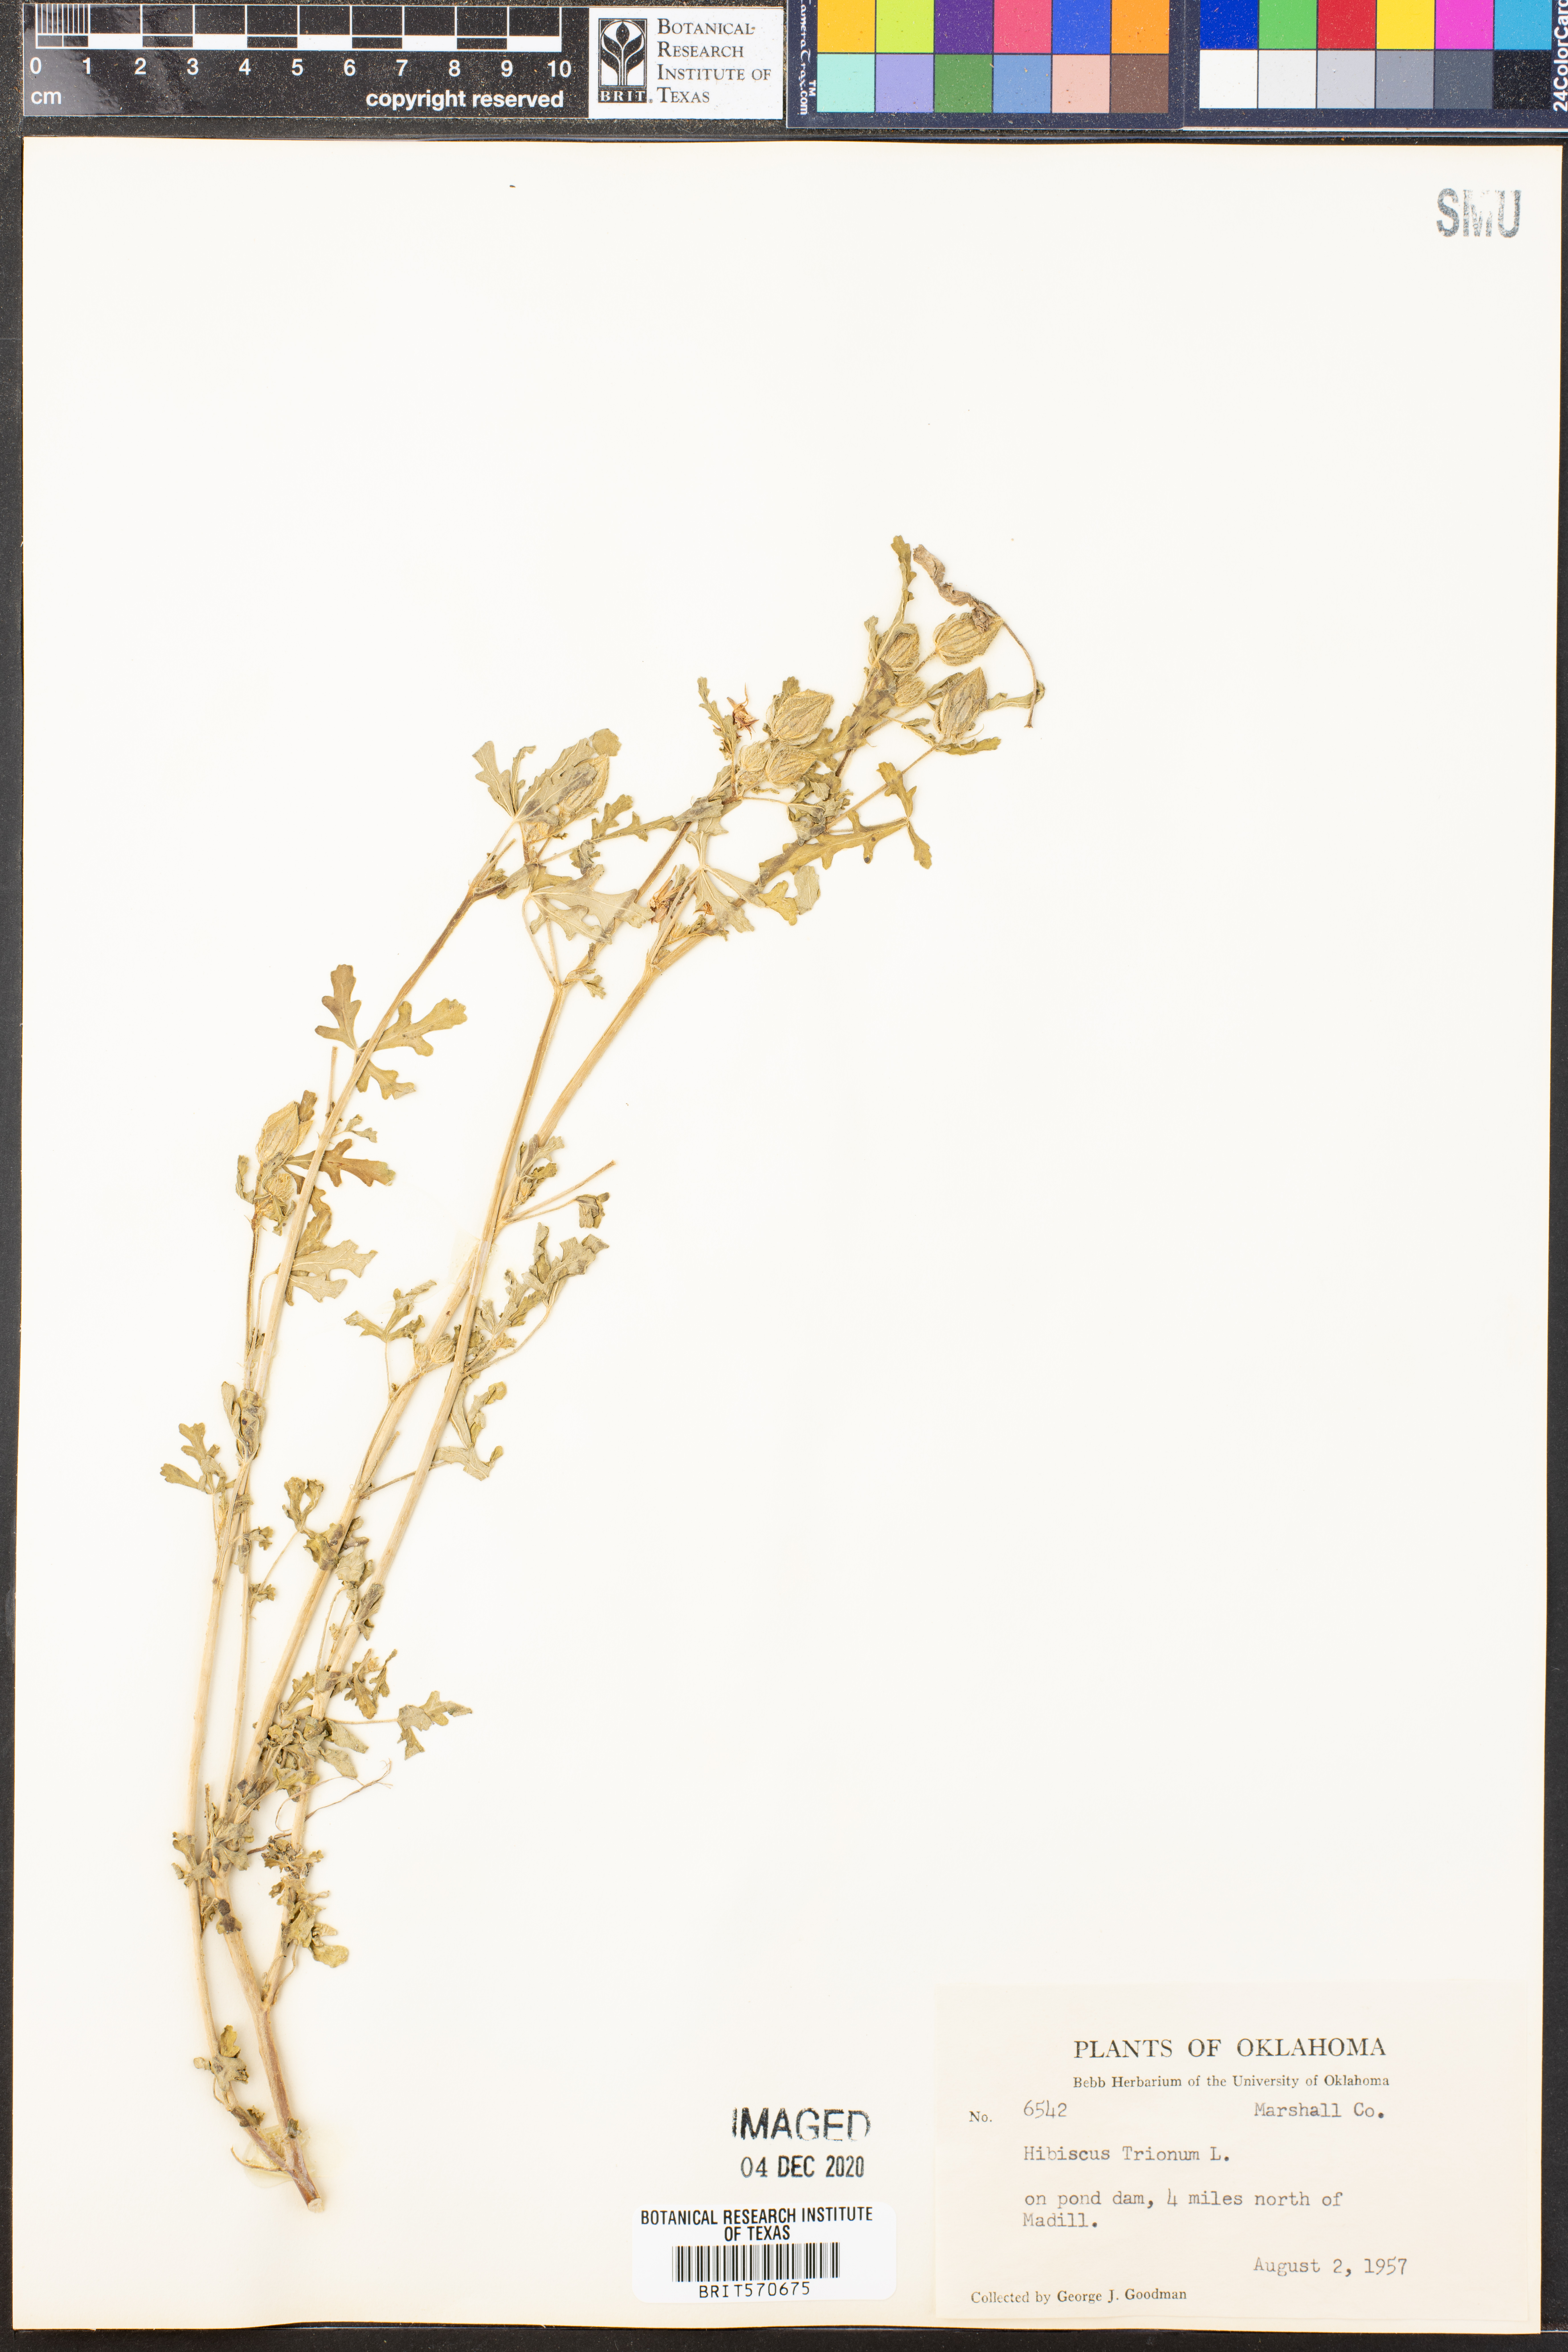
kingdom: Plantae
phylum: Tracheophyta
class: Magnoliopsida
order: Malvales
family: Malvaceae
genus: Hibiscus
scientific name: Hibiscus trionum
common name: Bladder ketmia
